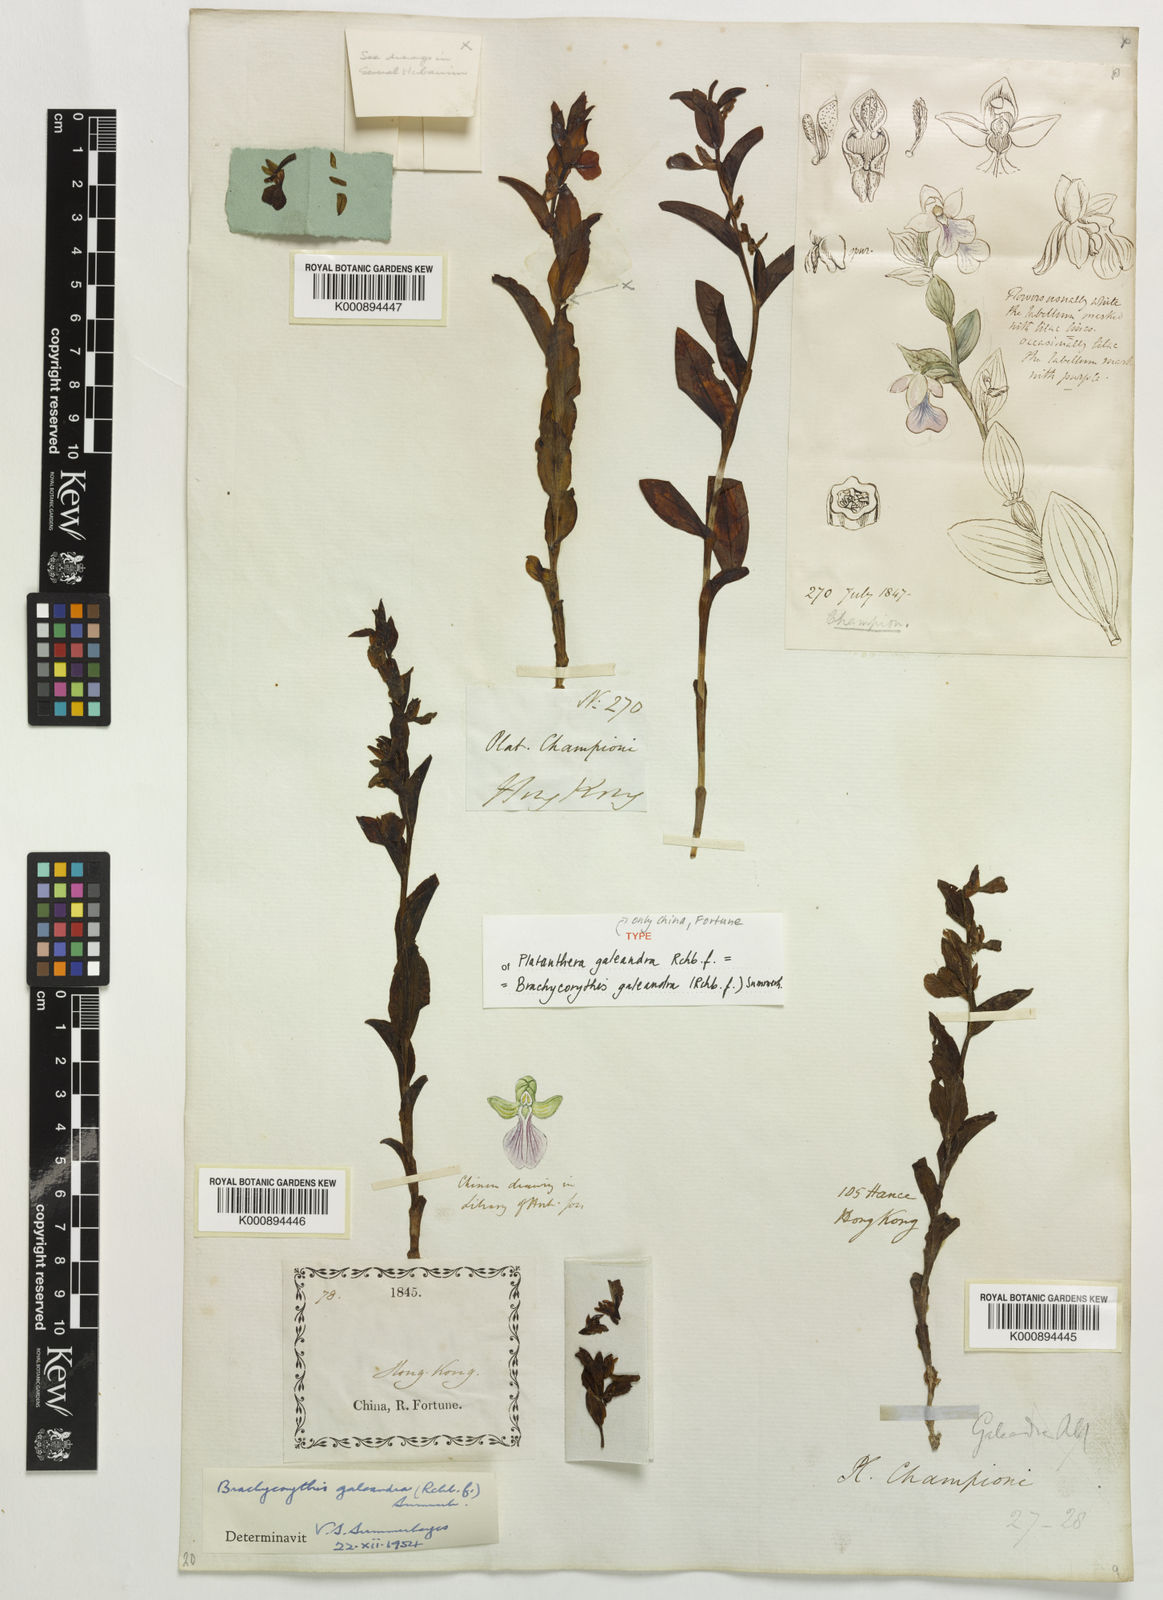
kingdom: Plantae
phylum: Tracheophyta
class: Liliopsida
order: Asparagales
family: Orchidaceae
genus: Brachycorythis
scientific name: Brachycorythis galeandra
